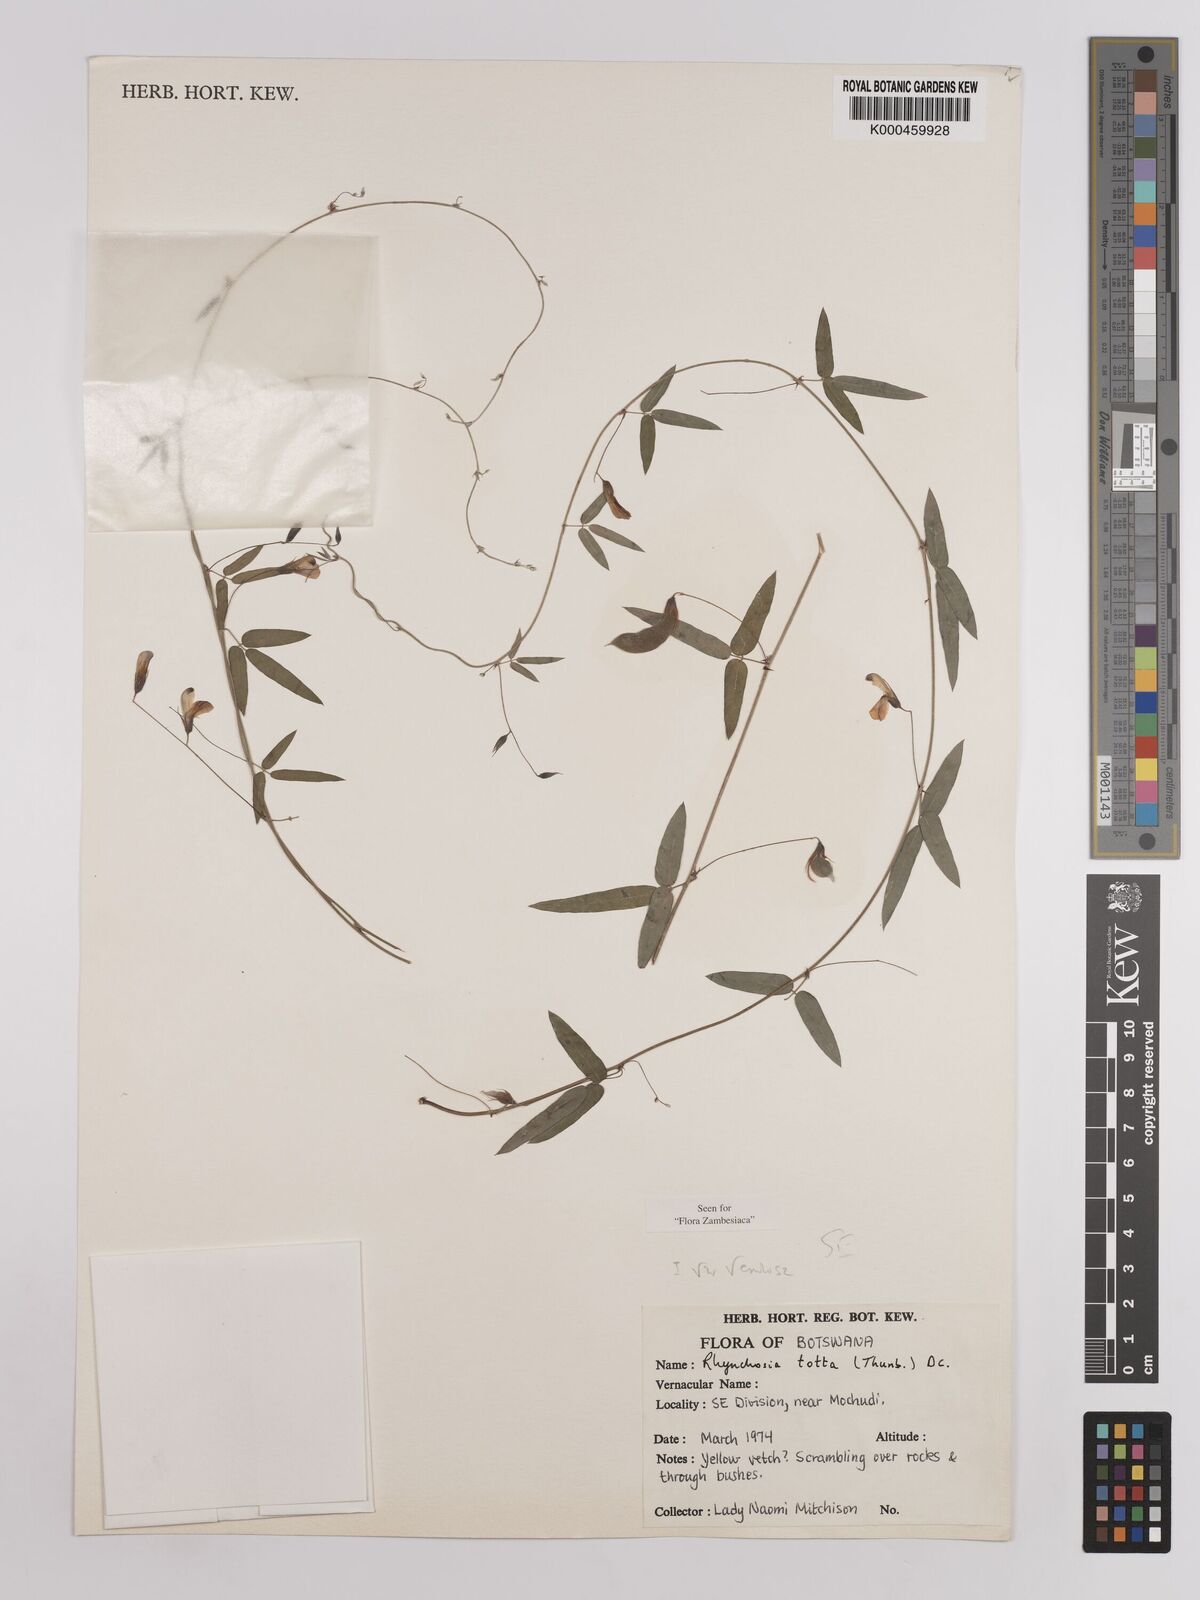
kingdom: Plantae
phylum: Tracheophyta
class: Magnoliopsida
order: Fabales
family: Fabaceae
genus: Rhynchosia
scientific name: Rhynchosia totta
